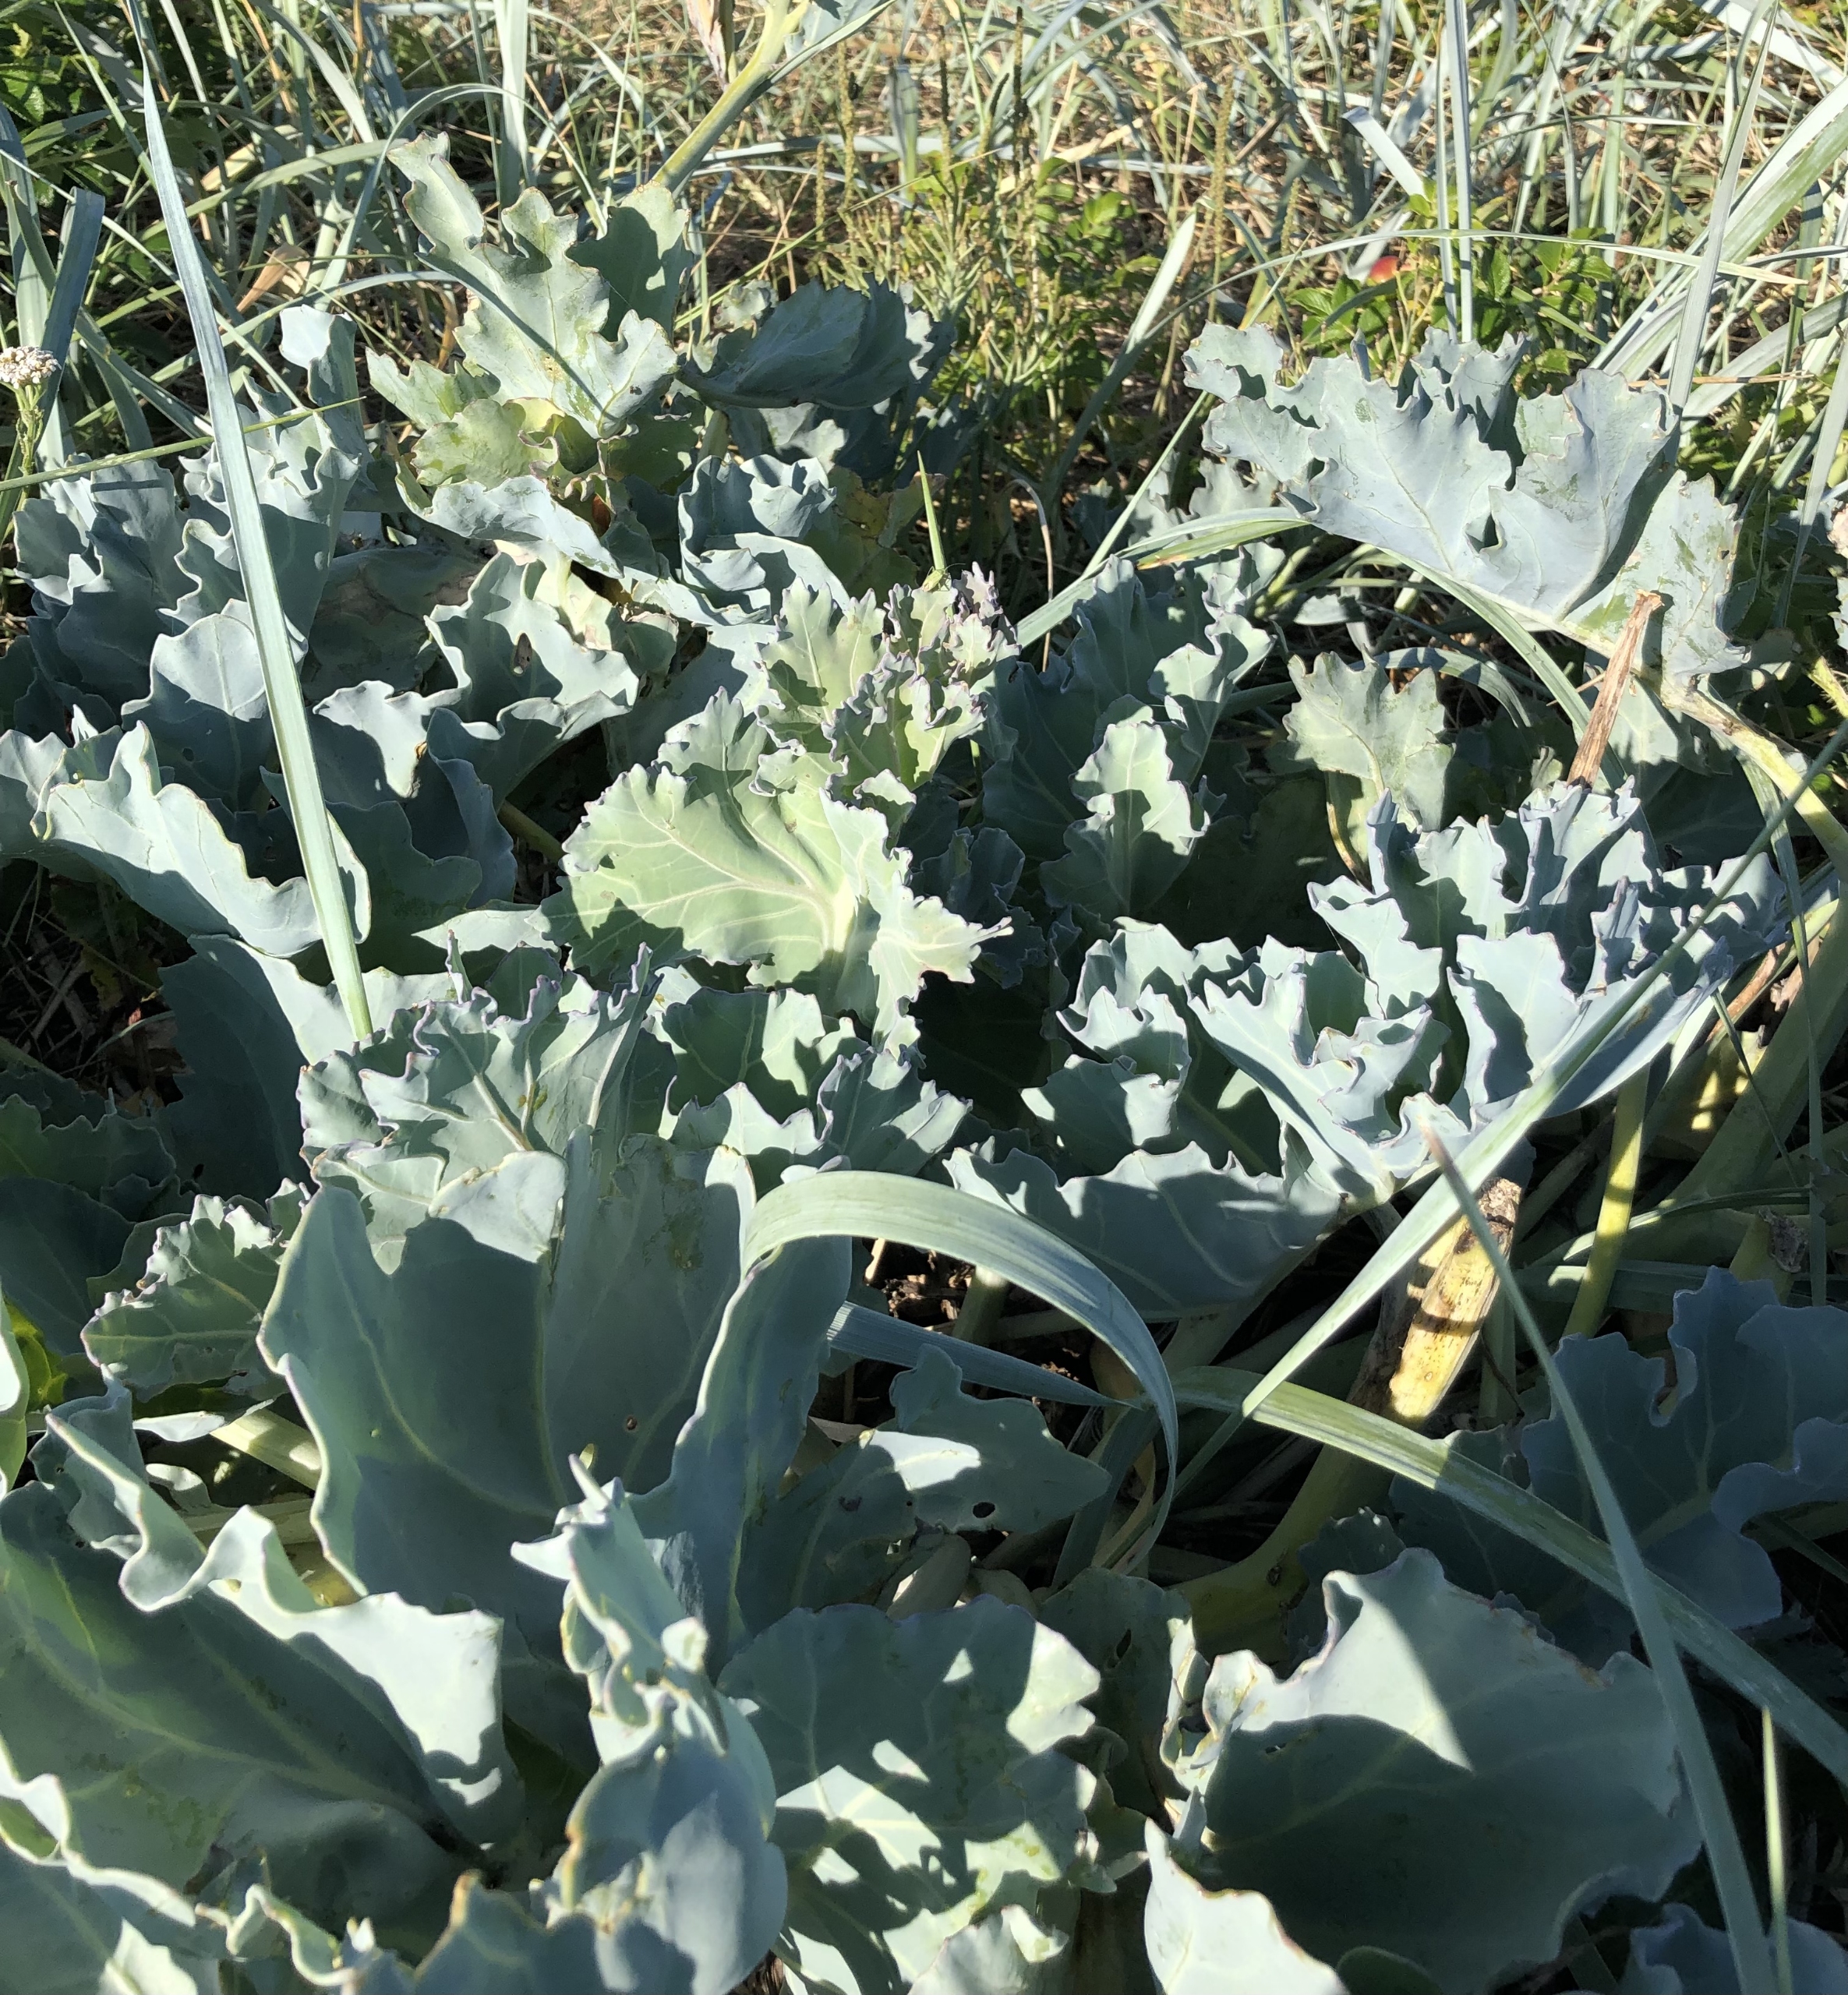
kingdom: Plantae
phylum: Tracheophyta
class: Magnoliopsida
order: Brassicales
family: Brassicaceae
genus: Crambe
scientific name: Crambe maritima
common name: Strandkål
